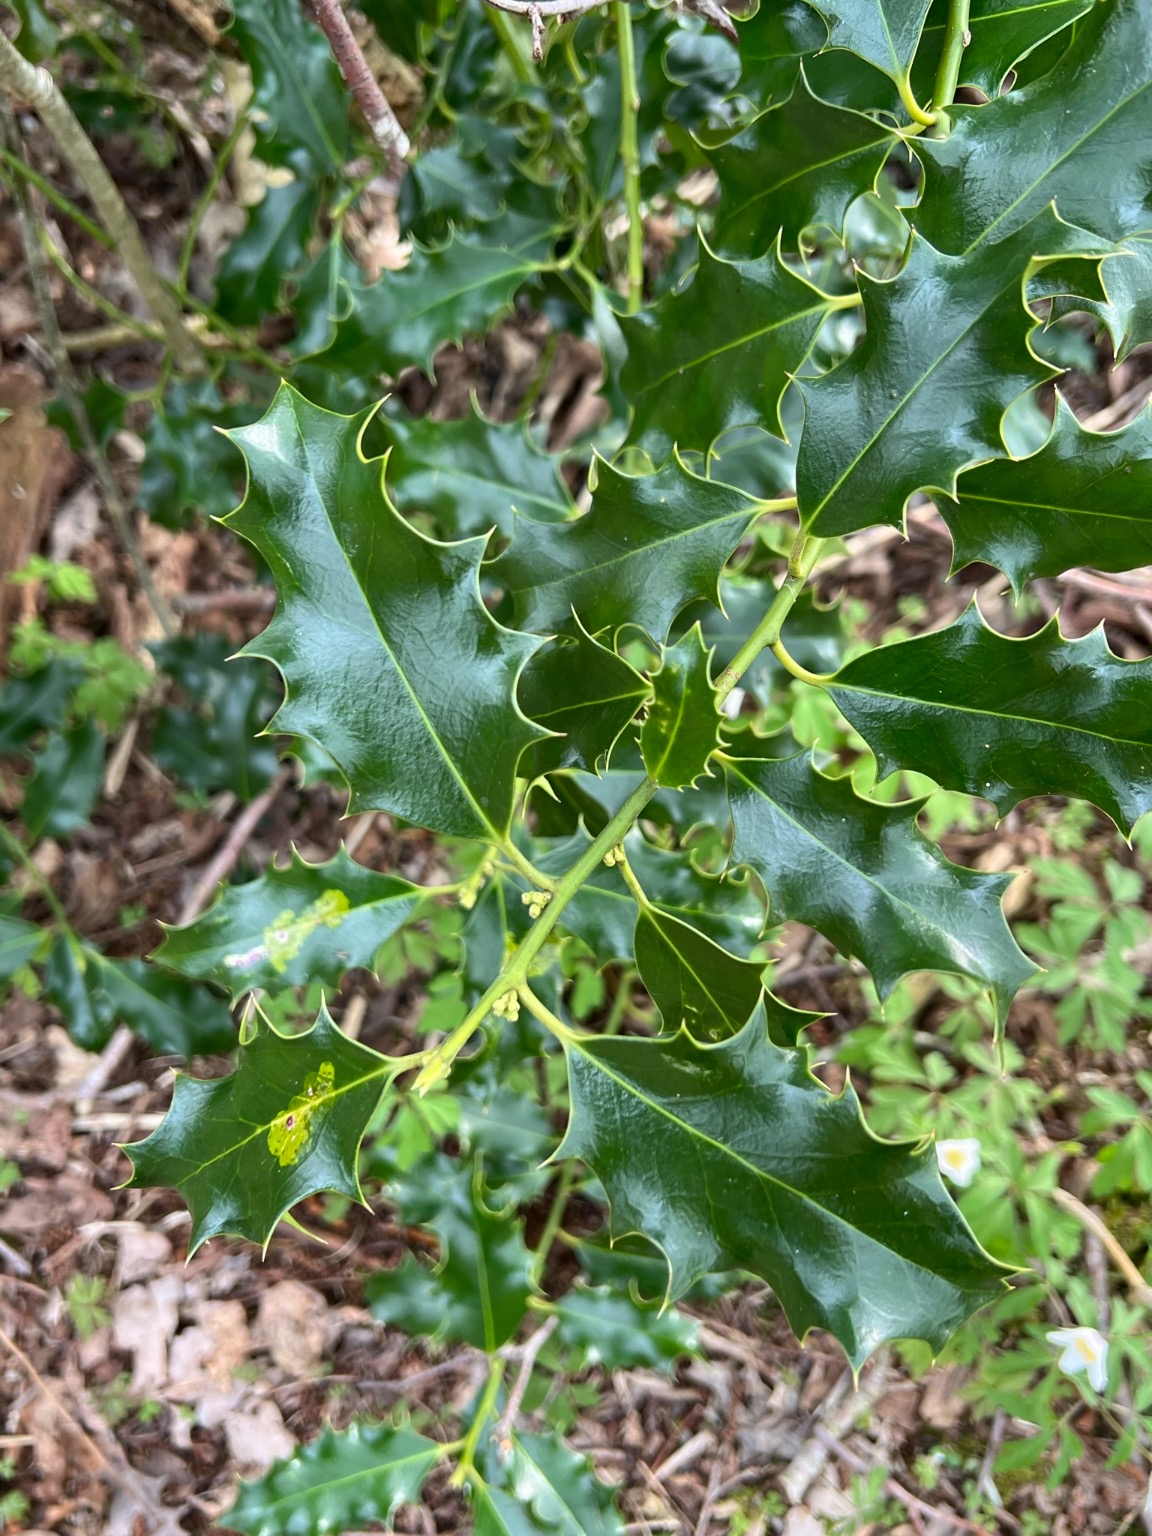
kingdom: Plantae
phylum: Tracheophyta
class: Magnoliopsida
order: Aquifoliales
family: Aquifoliaceae
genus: Ilex
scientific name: Ilex aquifolium
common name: Kristtorn
